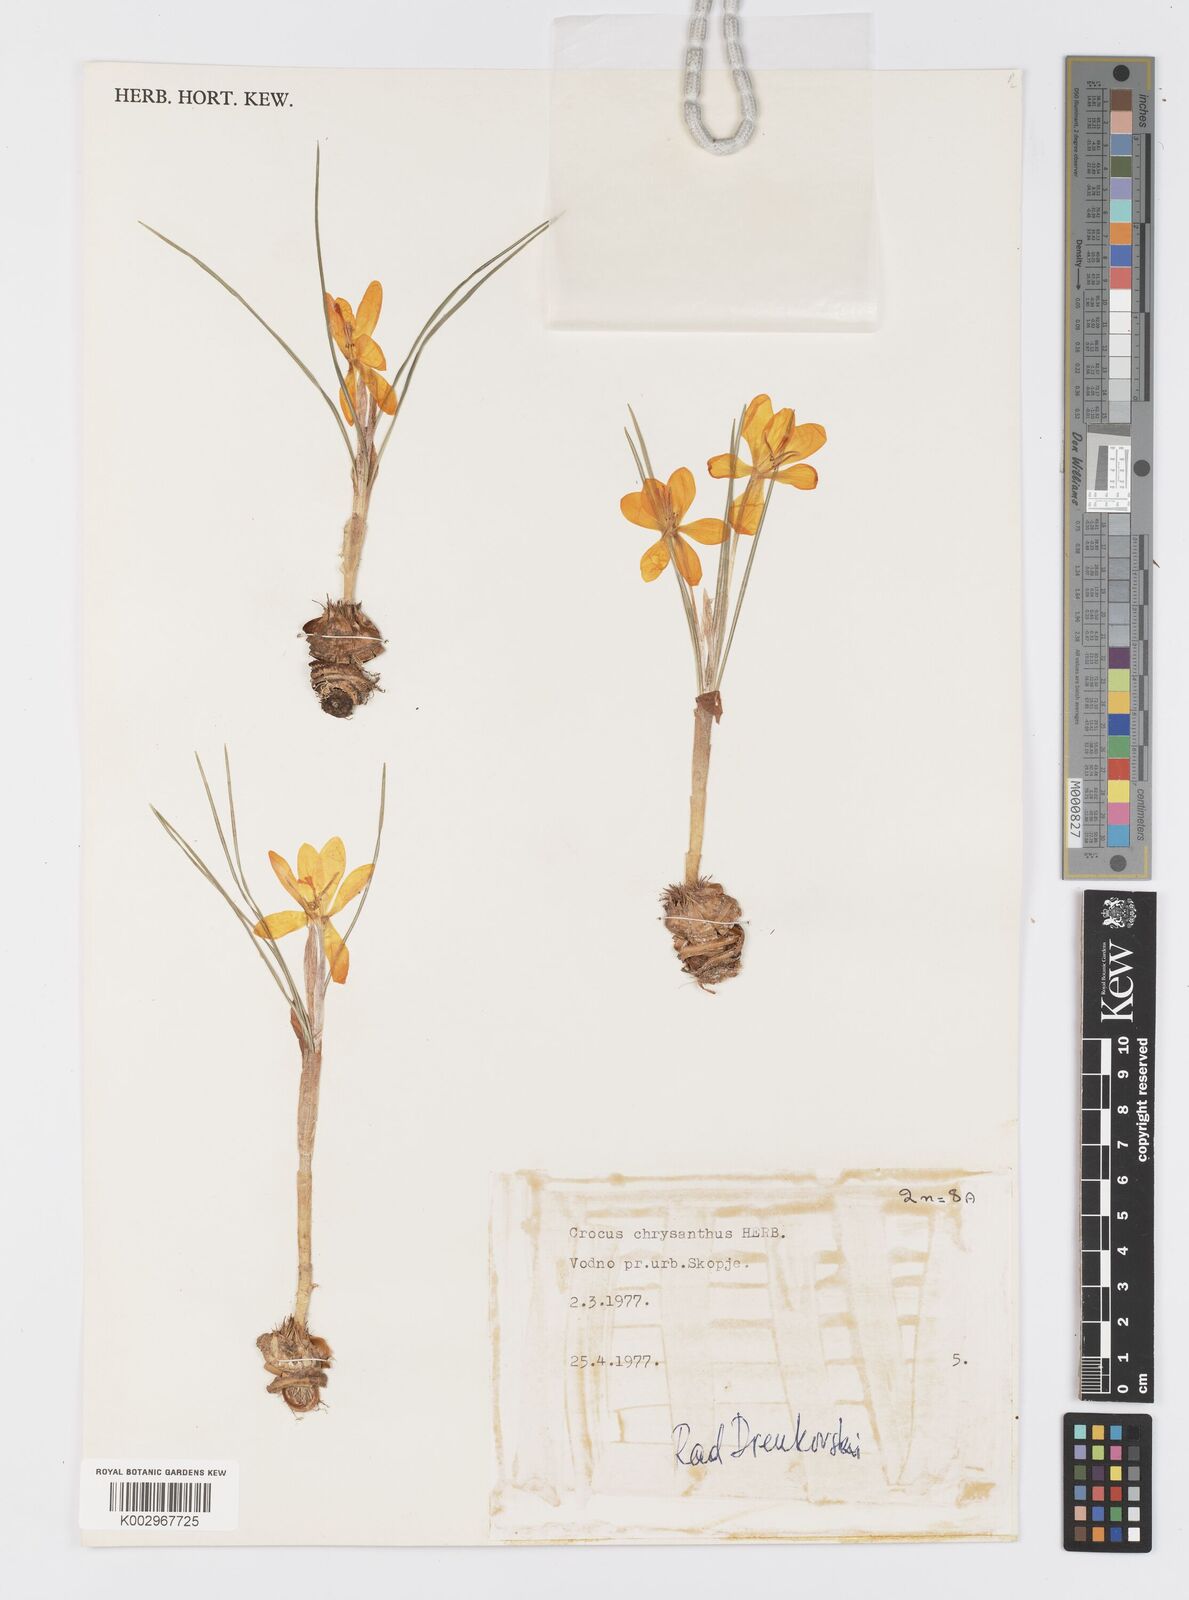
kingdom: Plantae
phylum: Tracheophyta
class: Liliopsida
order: Asparagales
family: Iridaceae
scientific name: Iridaceae
